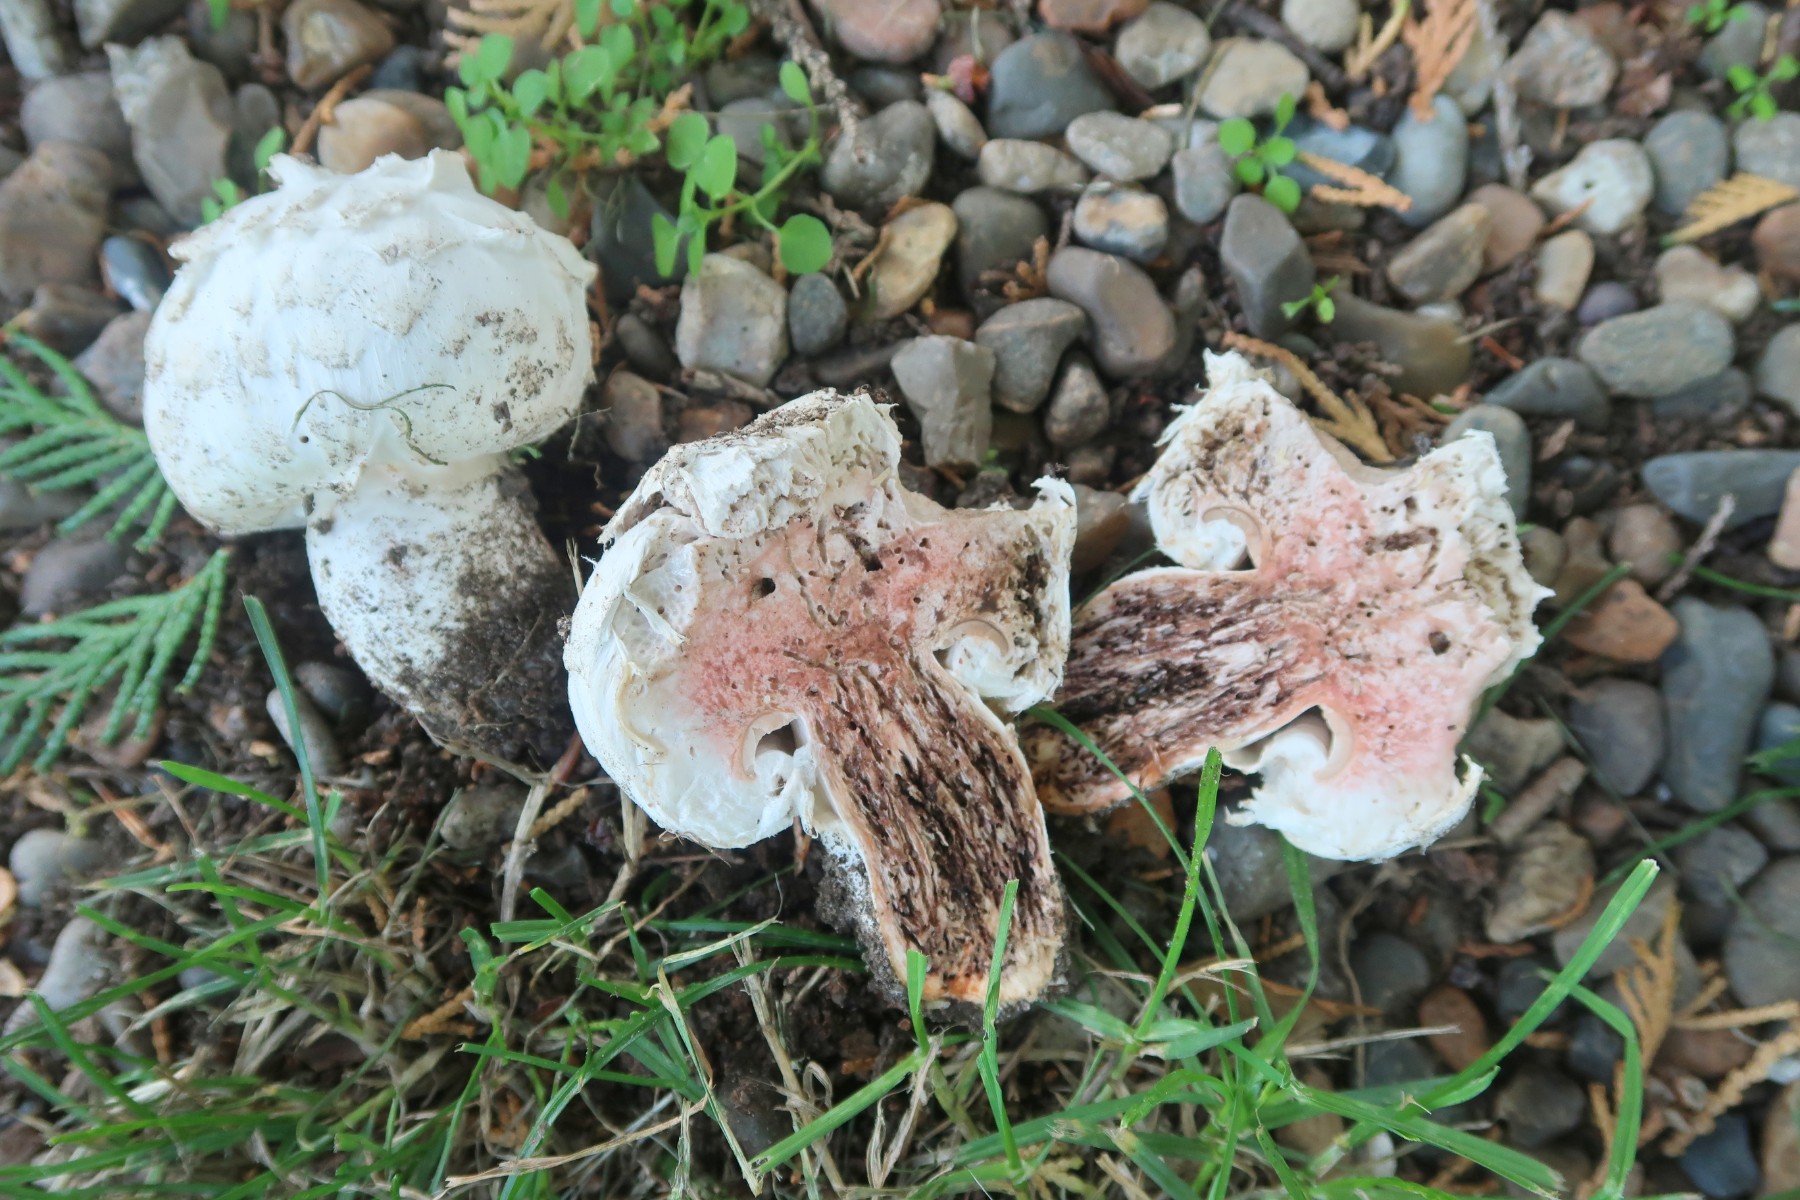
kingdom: Fungi
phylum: Basidiomycota
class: Agaricomycetes
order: Agaricales
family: Agaricaceae
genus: Agaricus
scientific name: Agaricus bernardii
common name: strandengs-champignon
